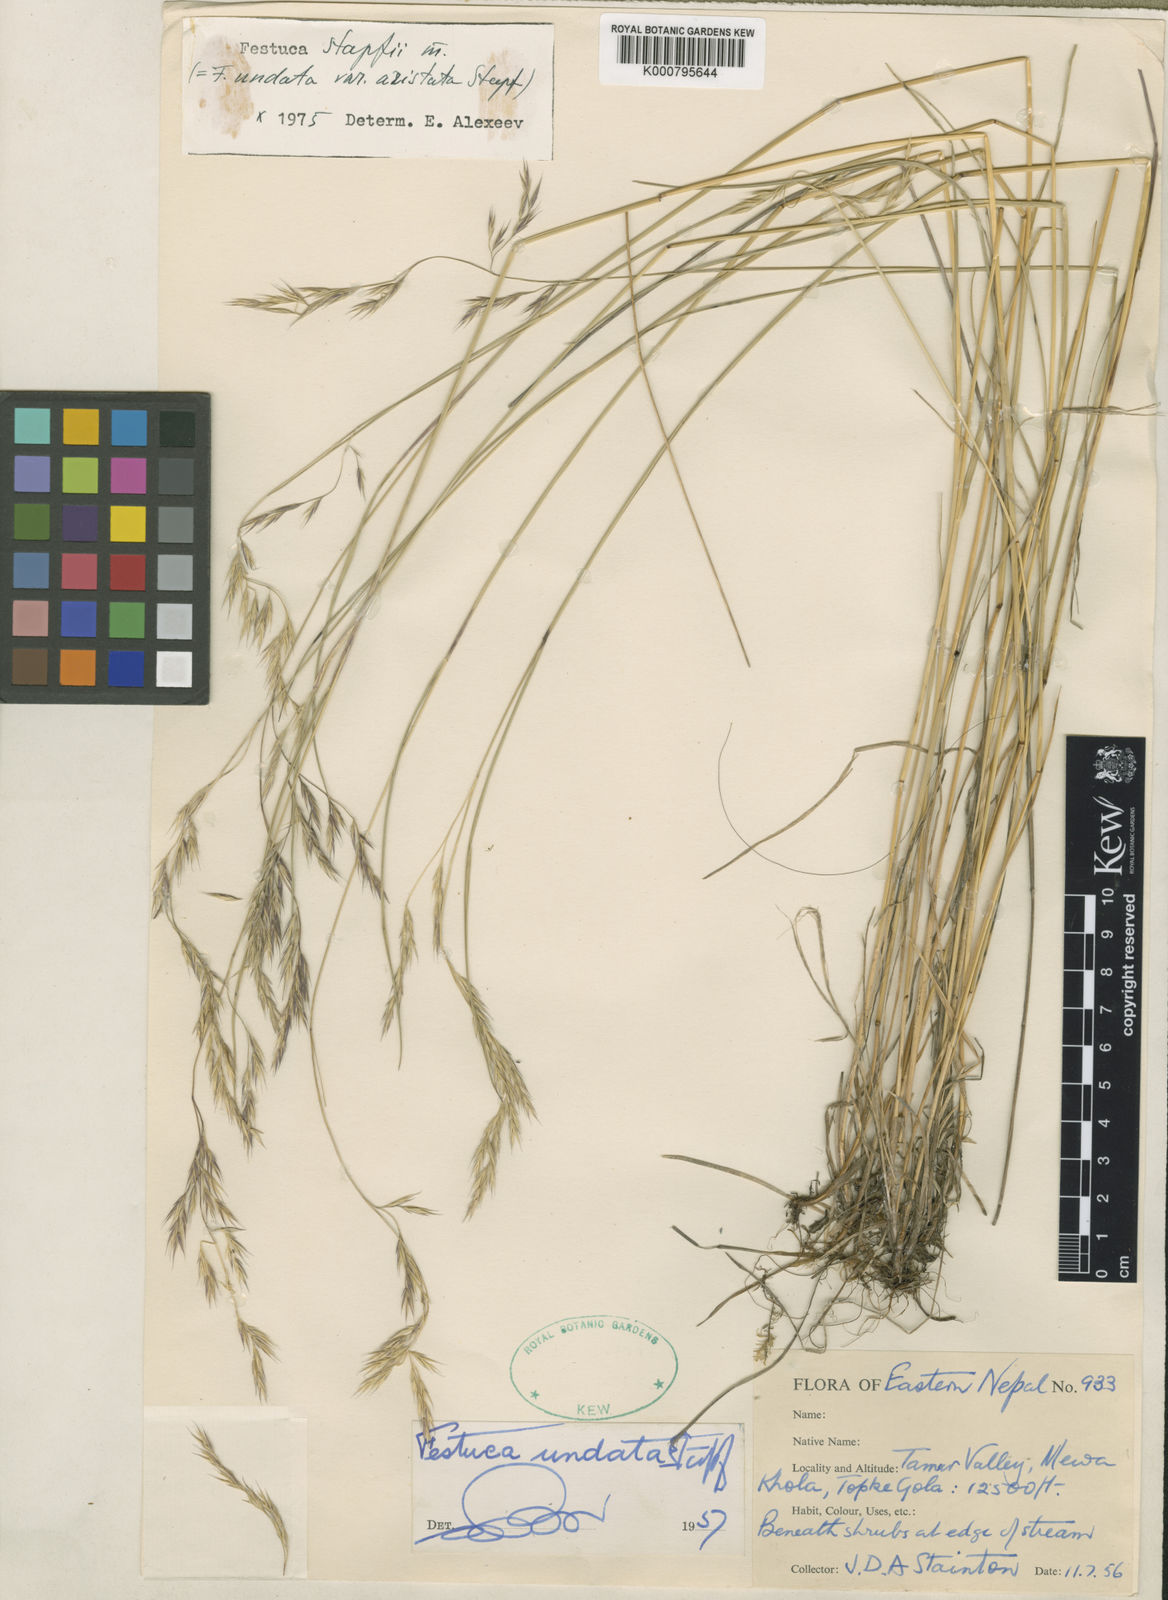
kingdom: Plantae
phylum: Tracheophyta
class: Liliopsida
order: Poales
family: Poaceae
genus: Festuca
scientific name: Festuca undata
